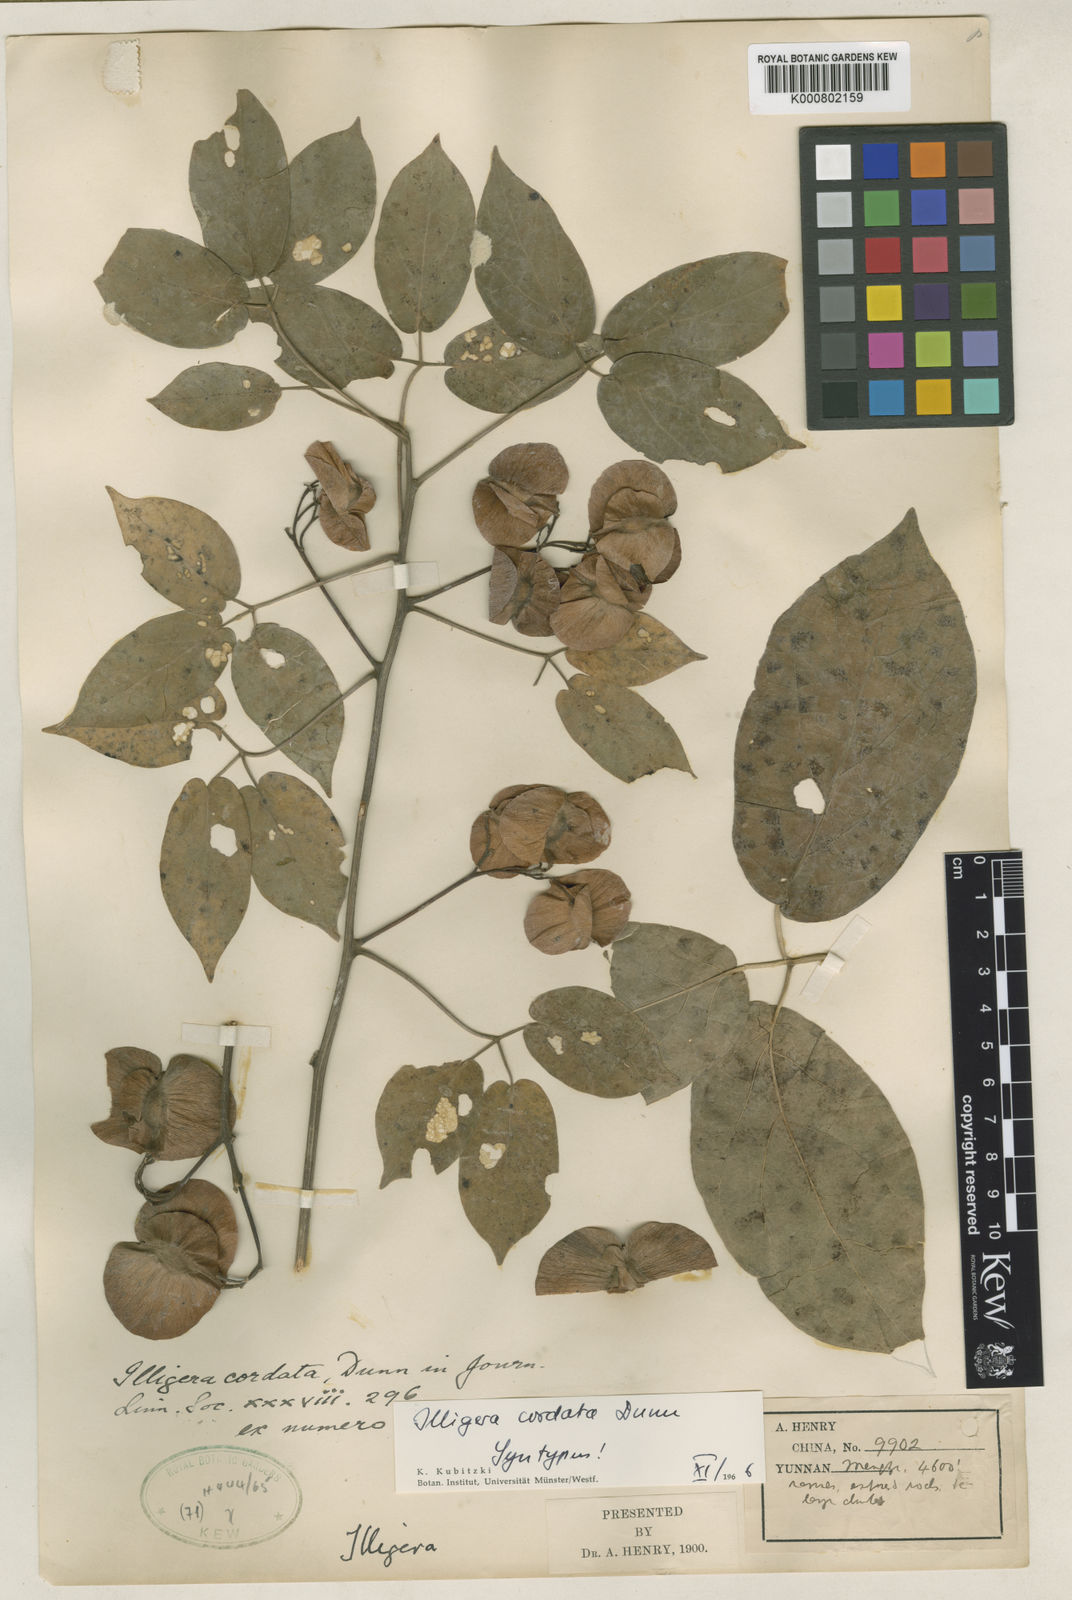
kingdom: Plantae
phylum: Tracheophyta
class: Magnoliopsida
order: Laurales
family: Hernandiaceae
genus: Illigera
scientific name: Illigera cordata
